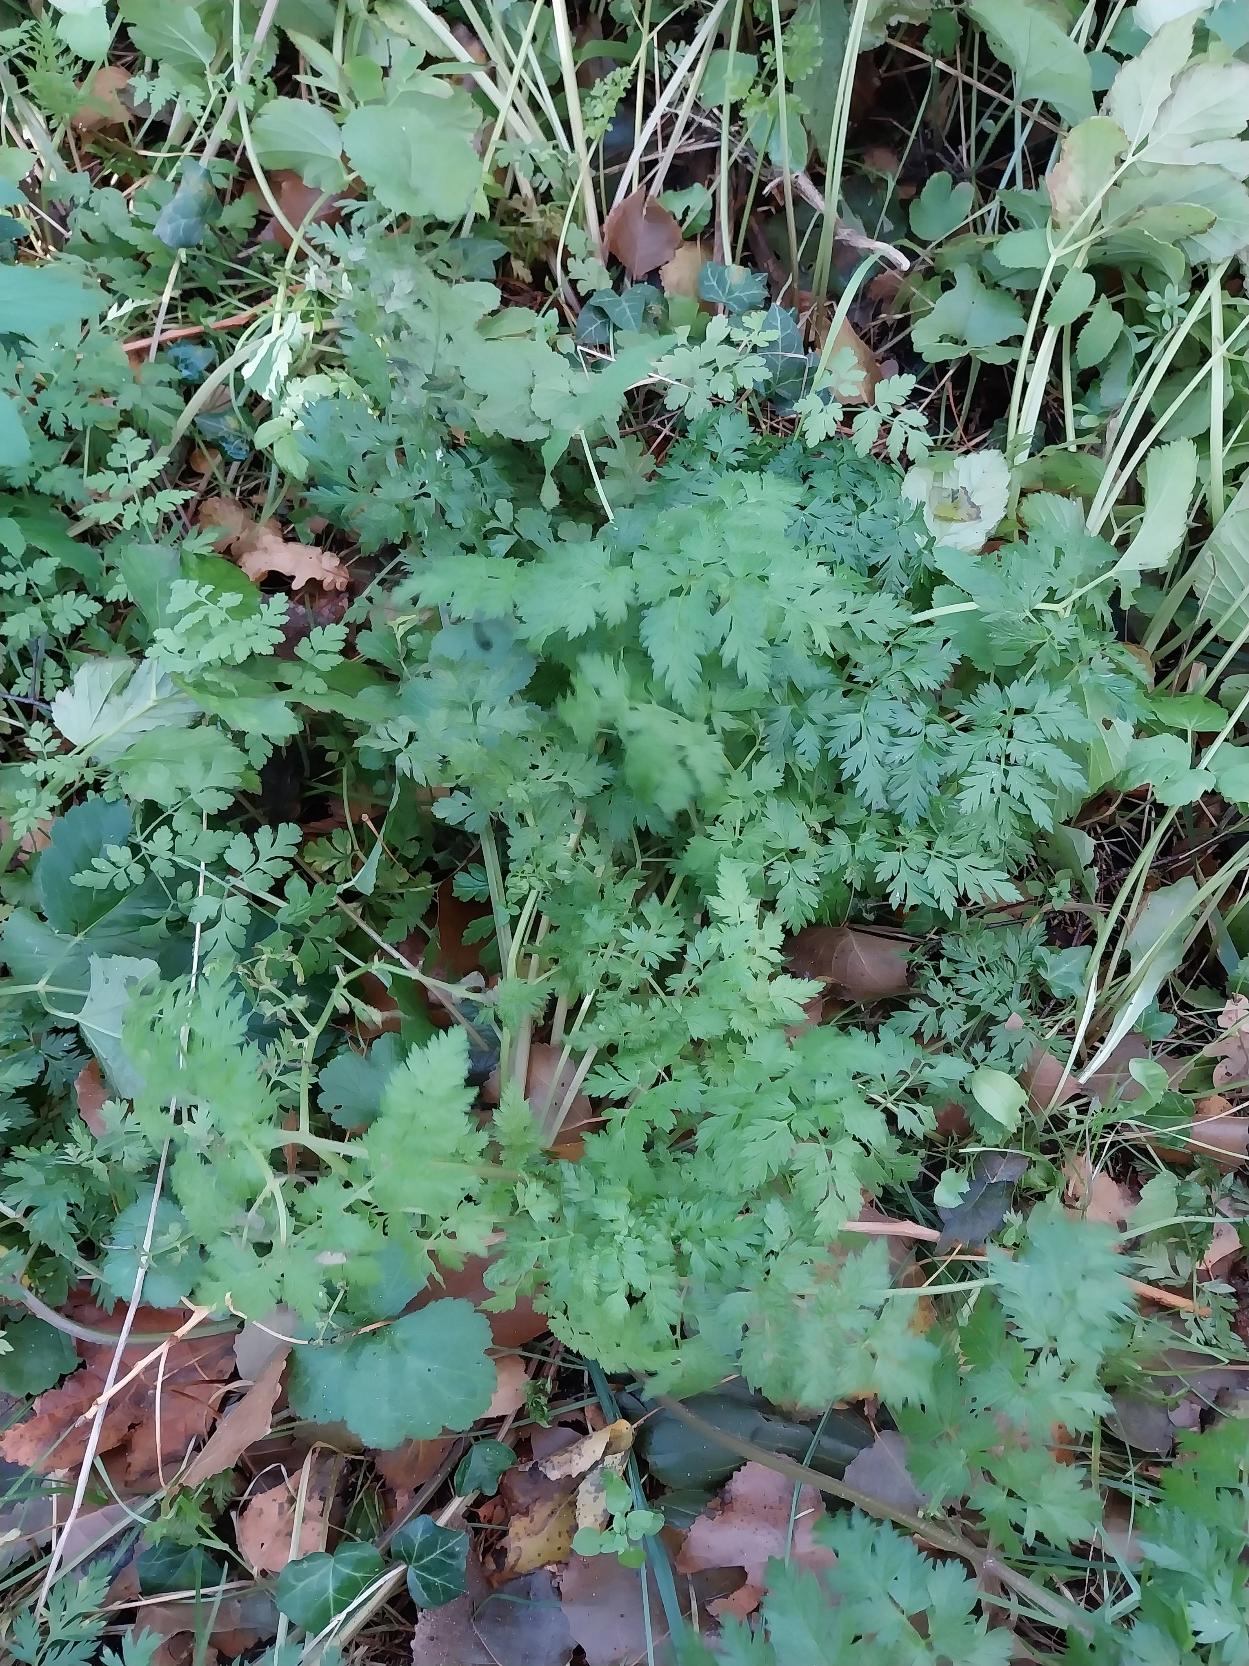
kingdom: Plantae
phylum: Tracheophyta
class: Magnoliopsida
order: Apiales
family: Apiaceae
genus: Anthriscus
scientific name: Anthriscus sylvestris
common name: Vild kørvel
